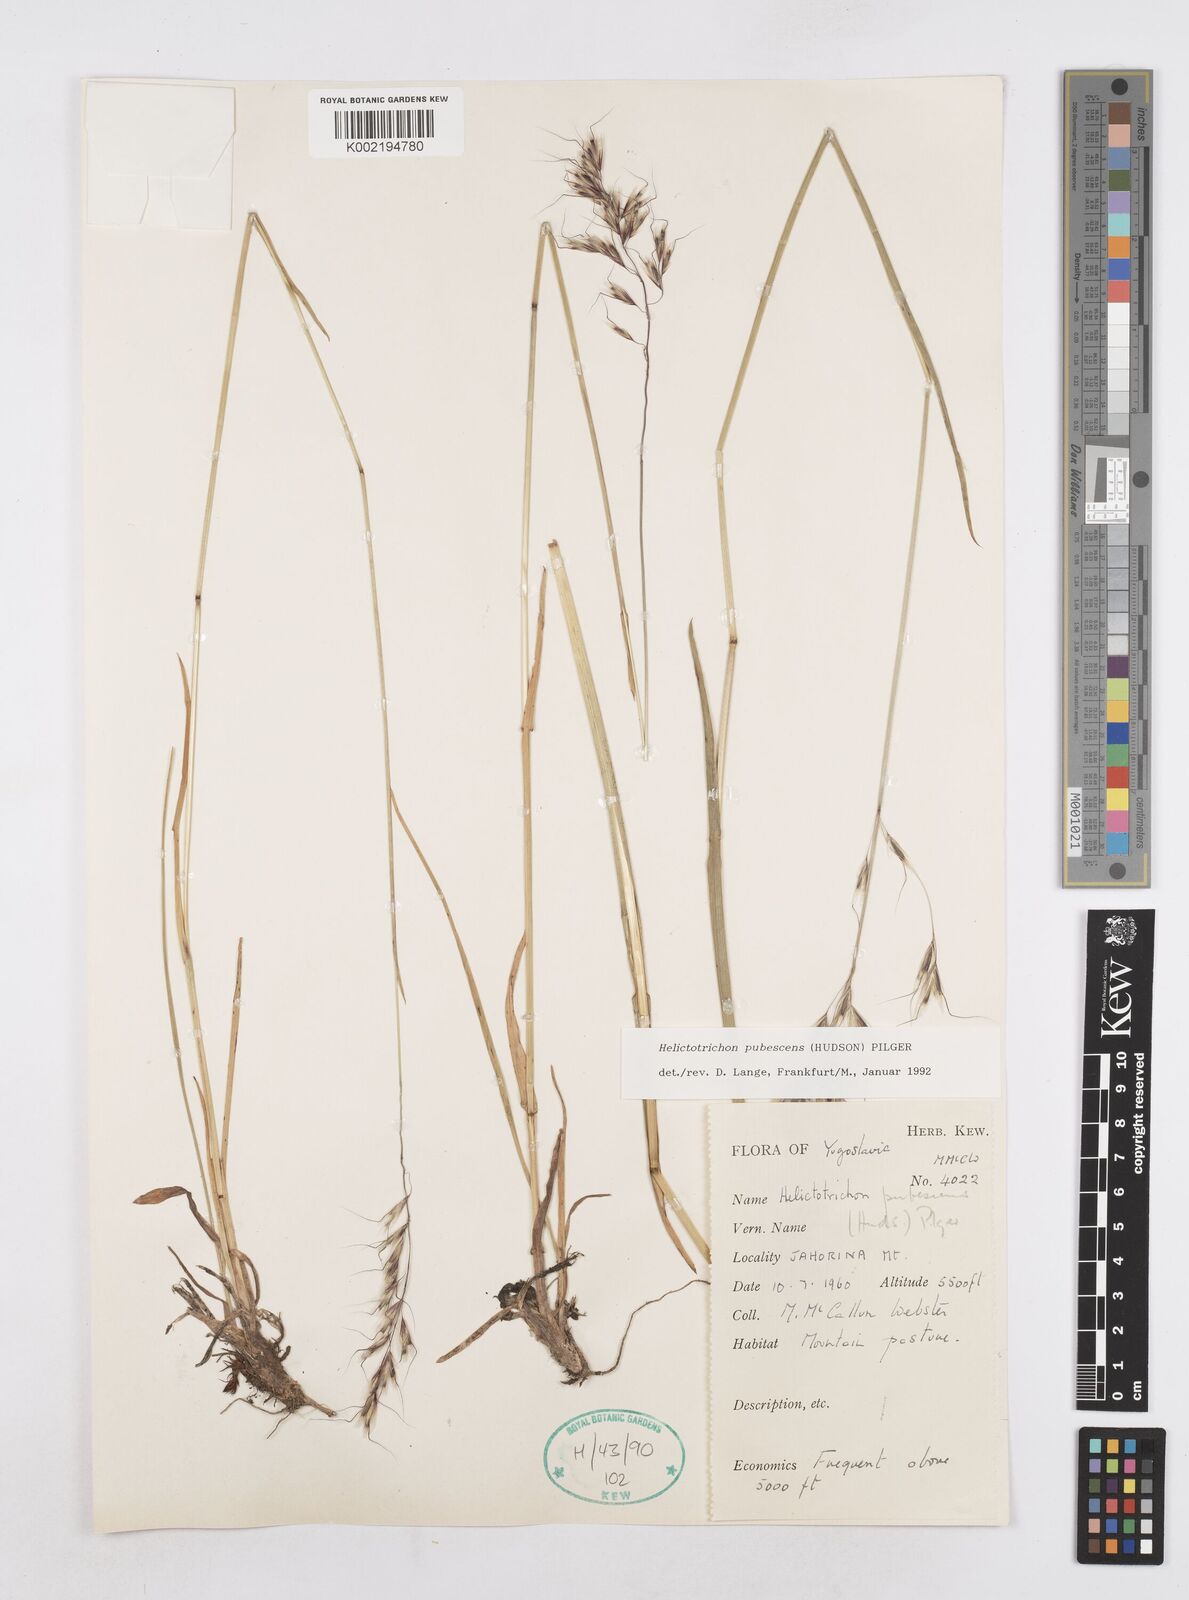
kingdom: Plantae
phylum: Tracheophyta
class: Liliopsida
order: Poales
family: Poaceae
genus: Avenula
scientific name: Avenula pubescens
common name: Downy alpine oatgrass
